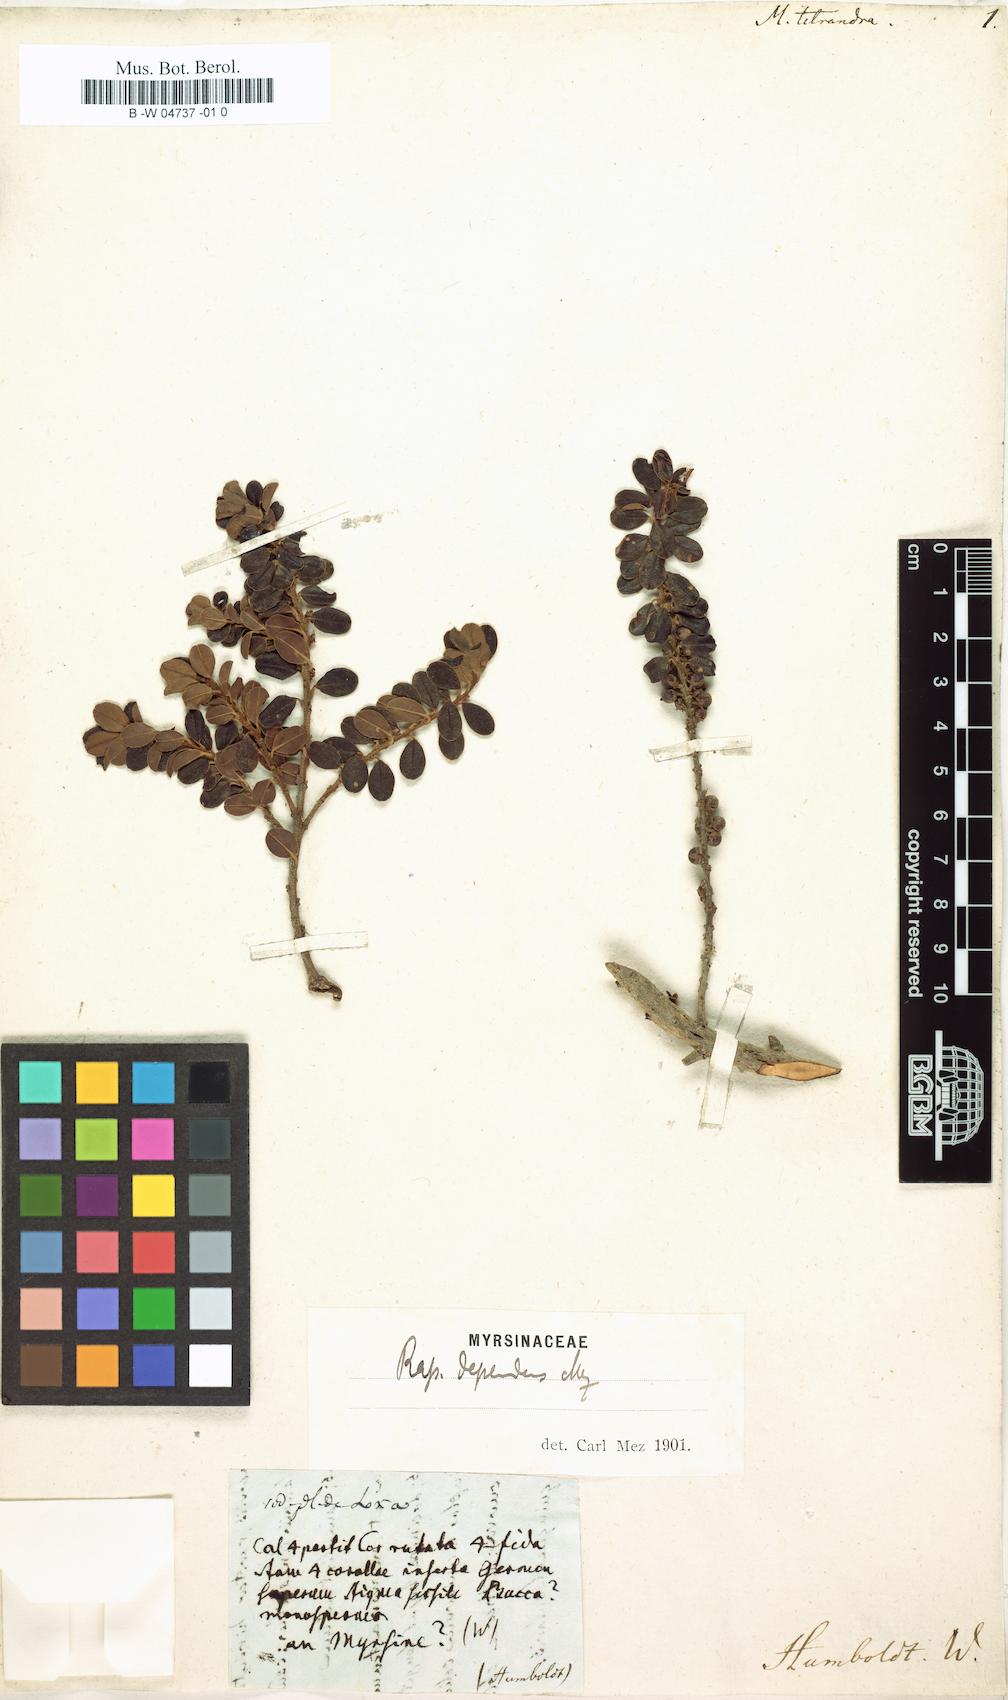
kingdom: Plantae
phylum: Tracheophyta
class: Magnoliopsida
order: Ericales
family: Primulaceae
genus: Myrsine
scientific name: Myrsine dependens
